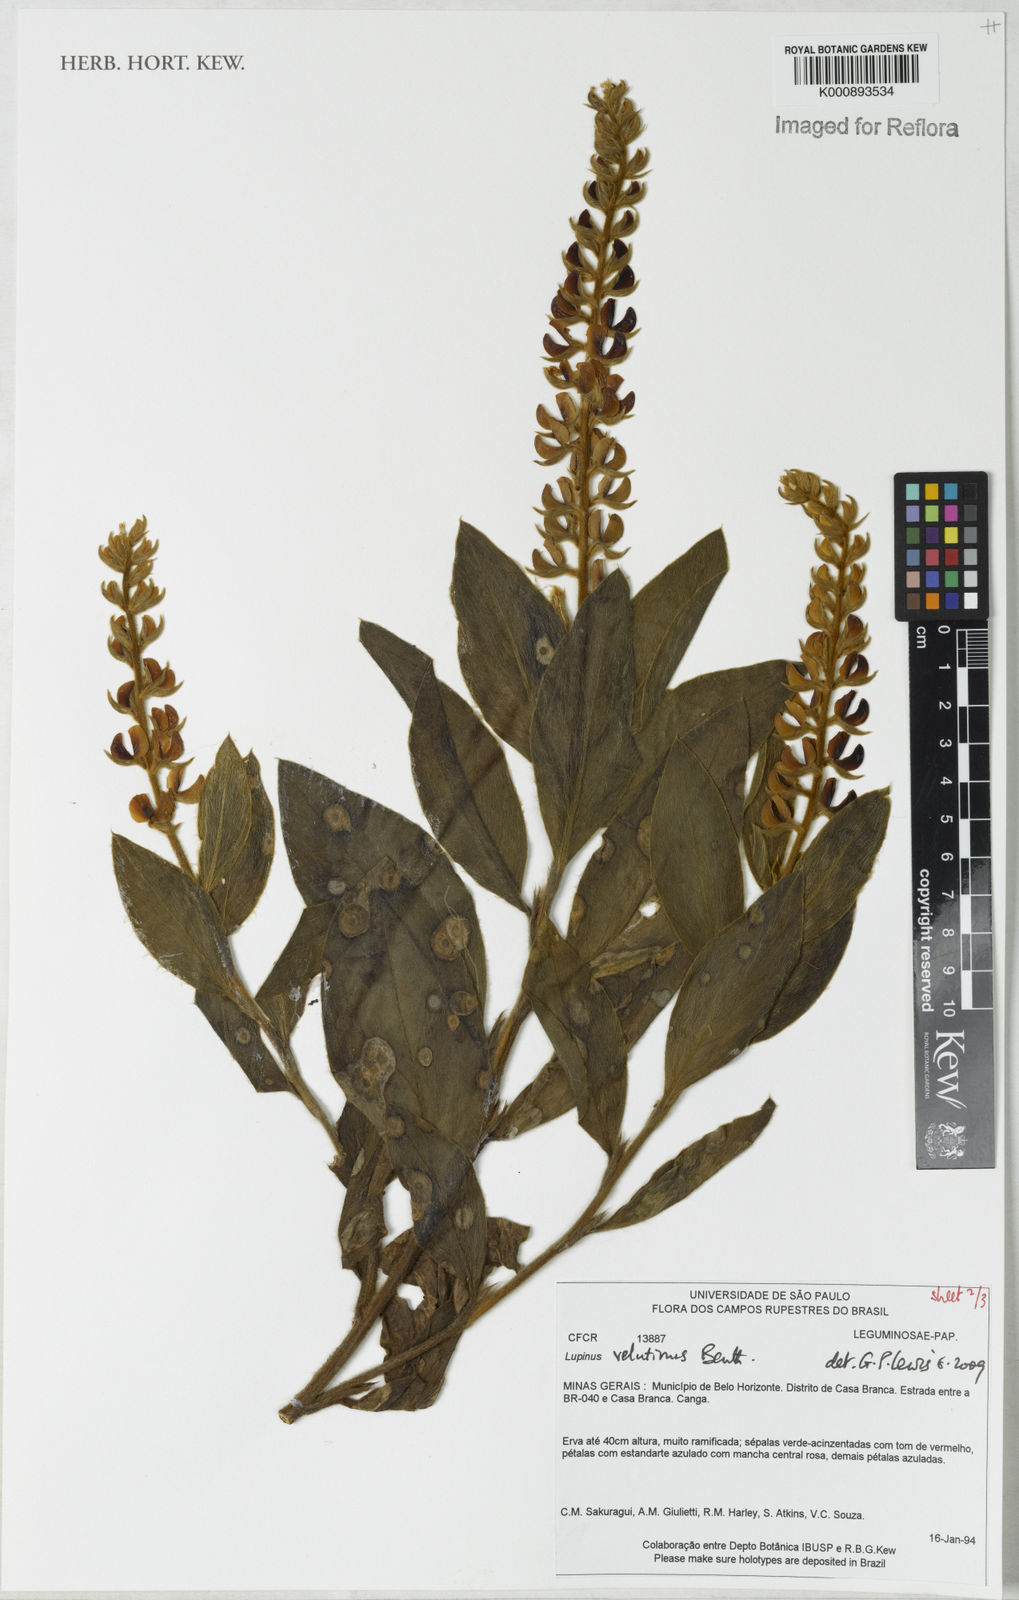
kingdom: Plantae
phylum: Tracheophyta
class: Magnoliopsida
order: Fabales
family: Fabaceae
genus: Lupinus
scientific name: Lupinus velutinus
